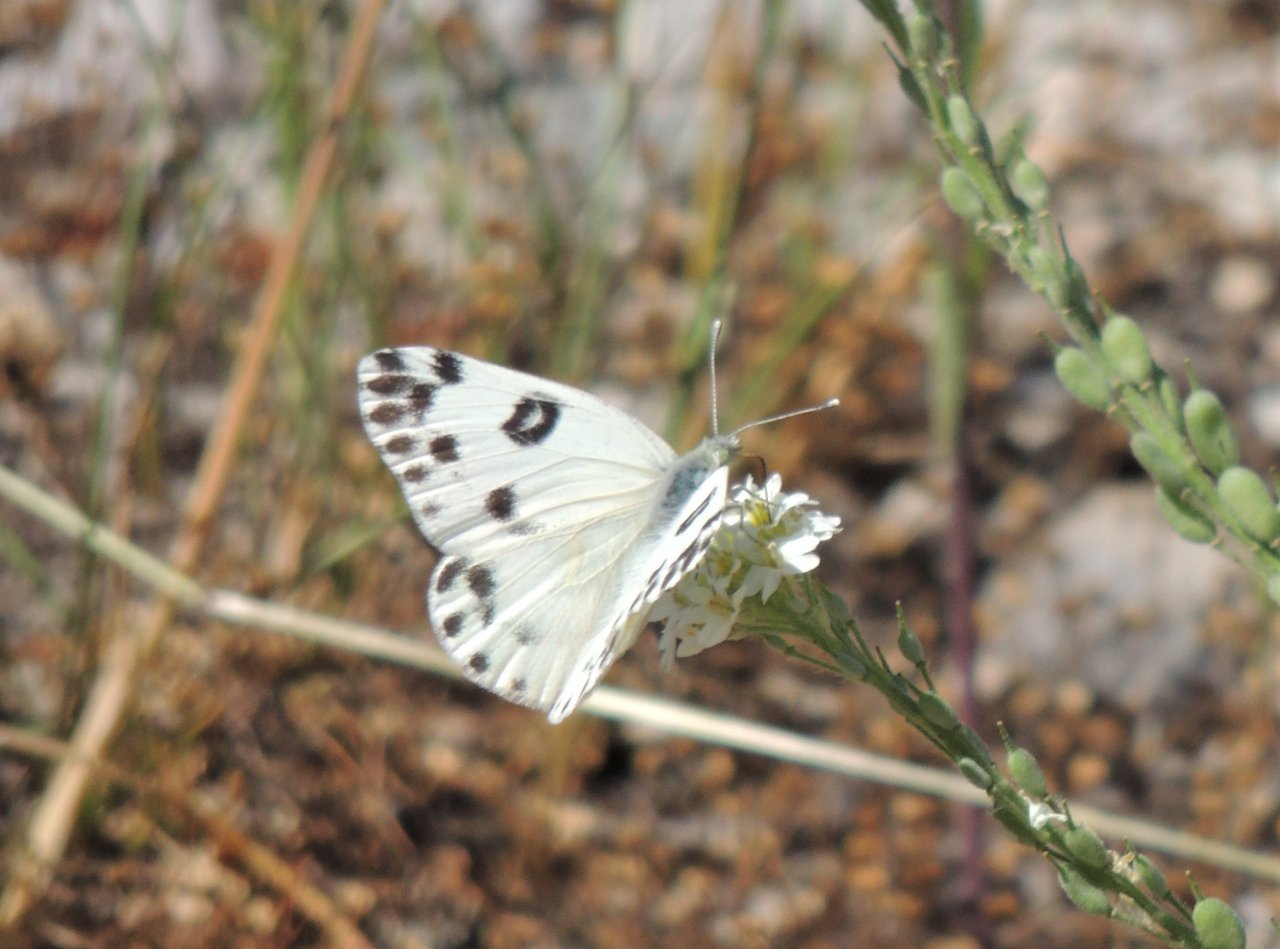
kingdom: Animalia
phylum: Arthropoda
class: Insecta
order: Lepidoptera
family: Pieridae
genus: Pontia
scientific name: Pontia beckerii
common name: Becker's White
